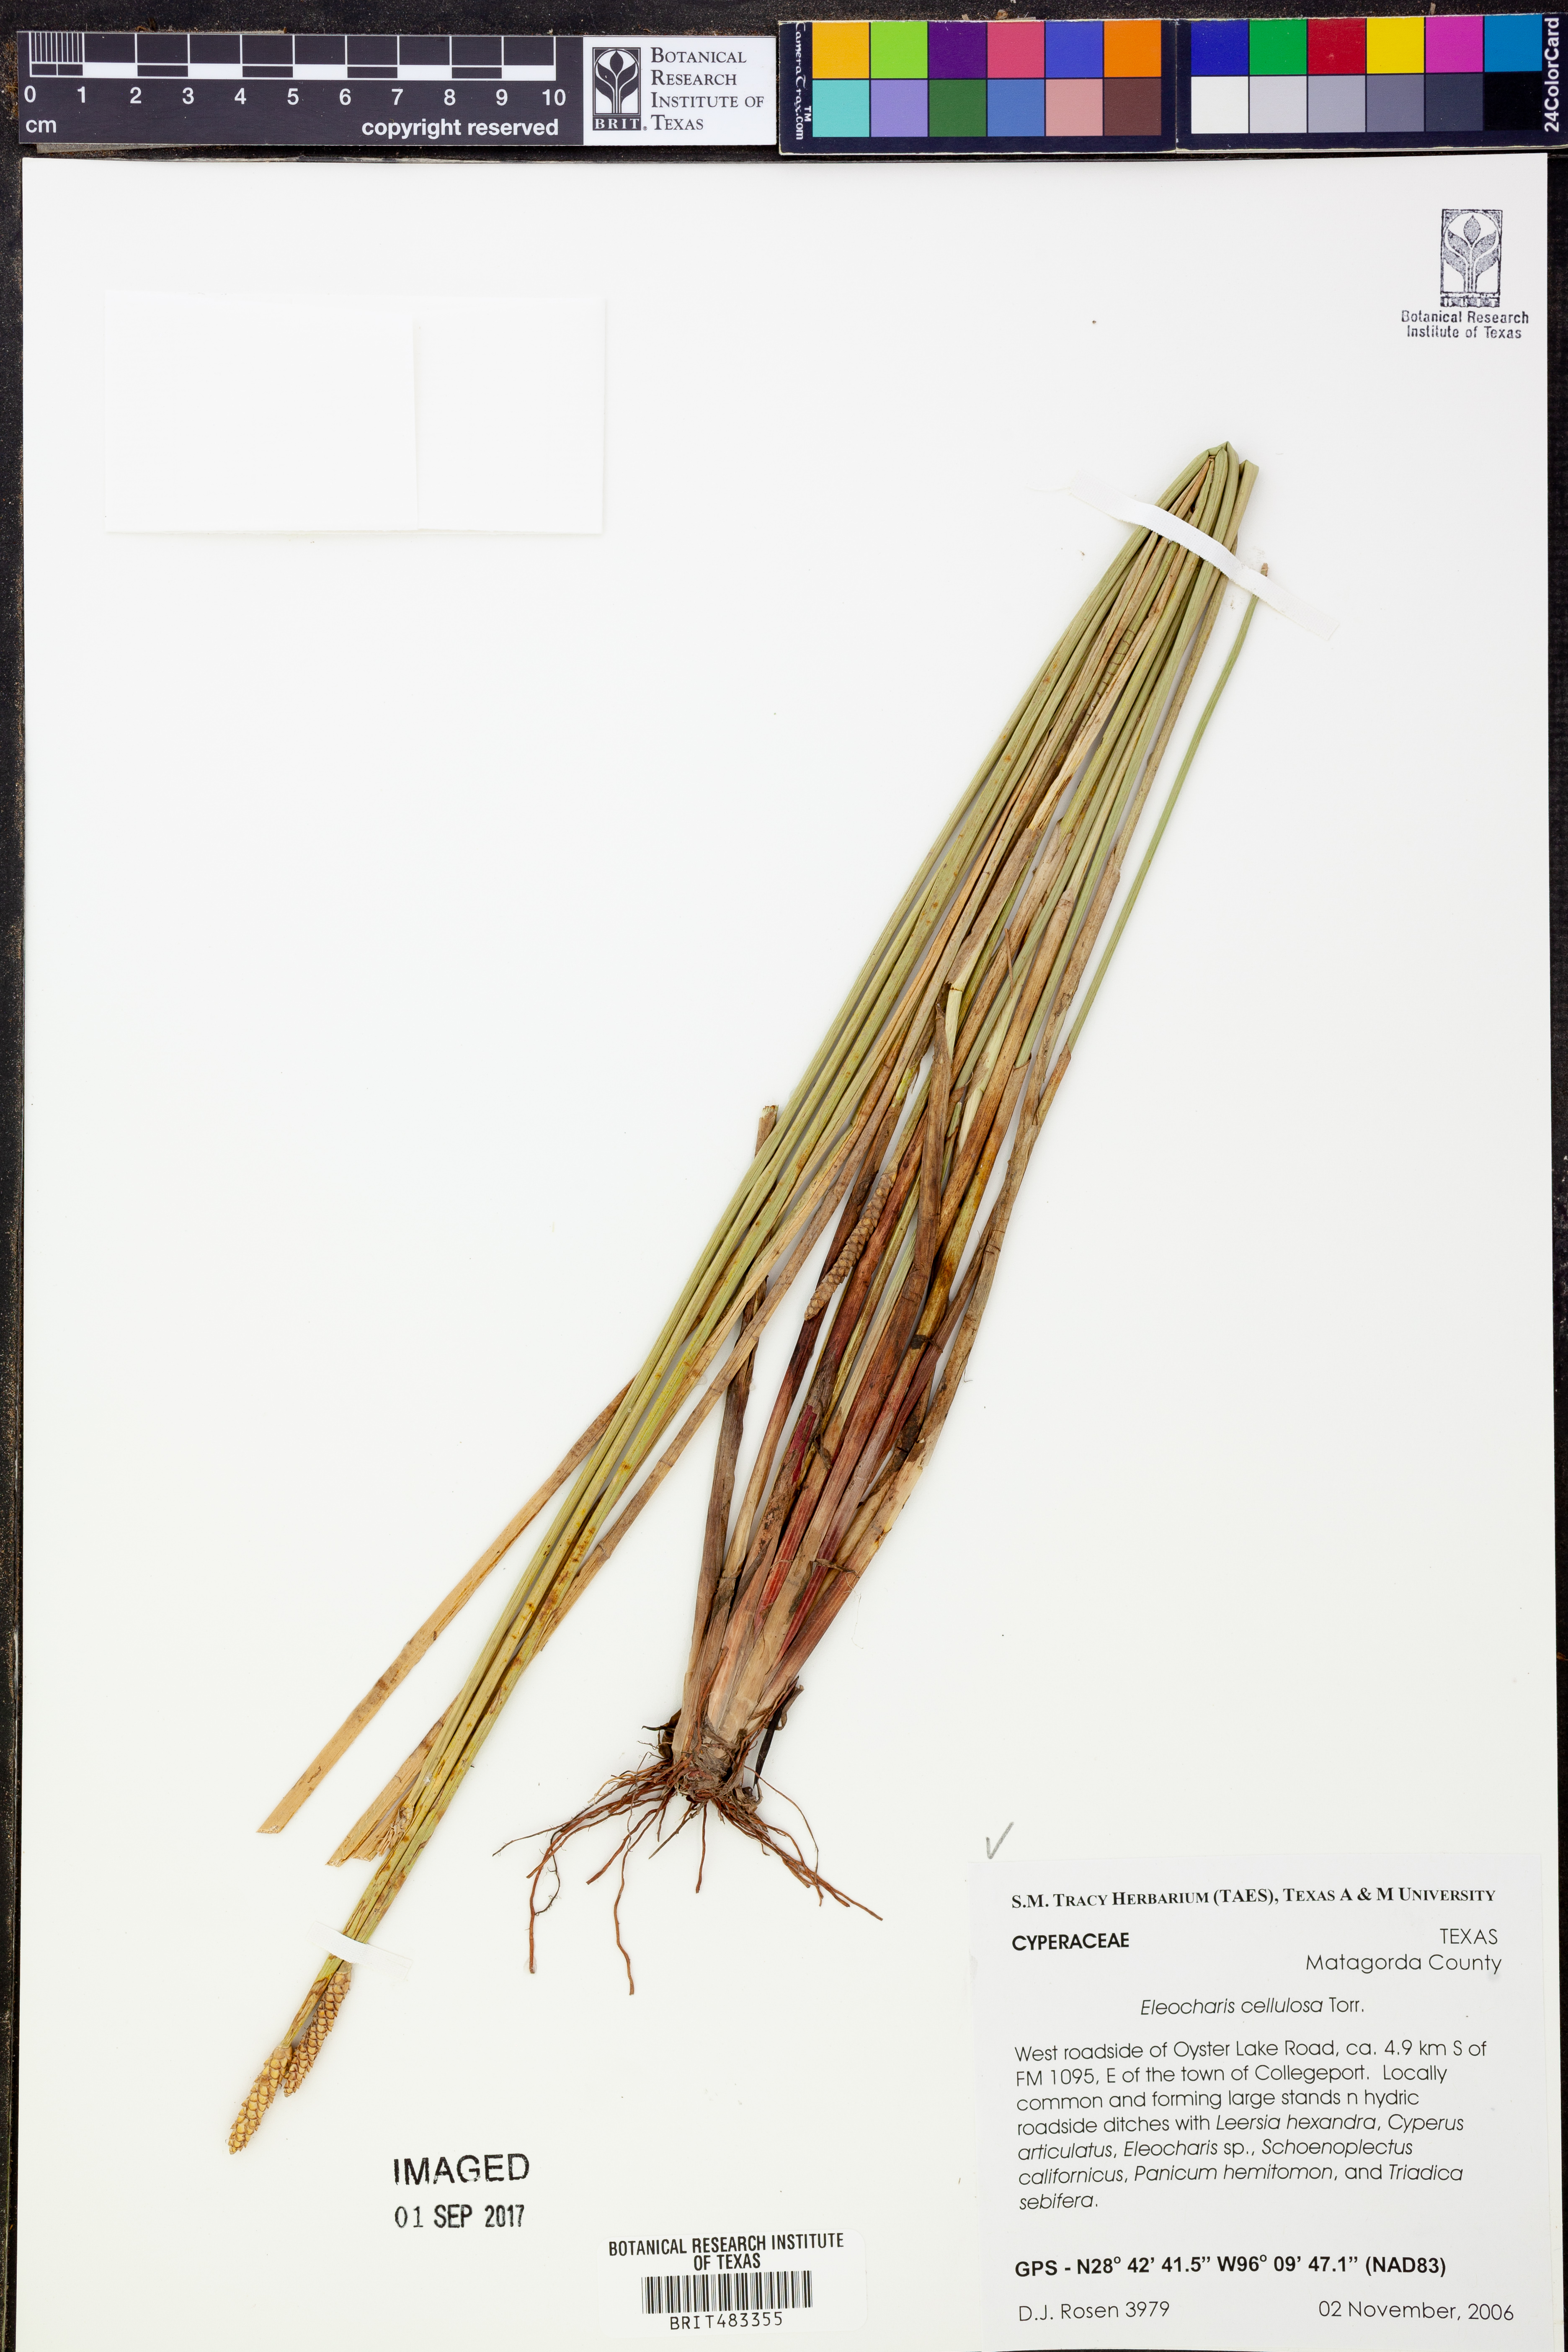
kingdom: Plantae
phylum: Tracheophyta
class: Liliopsida
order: Poales
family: Cyperaceae
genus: Eleocharis
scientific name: Eleocharis cellulosa
